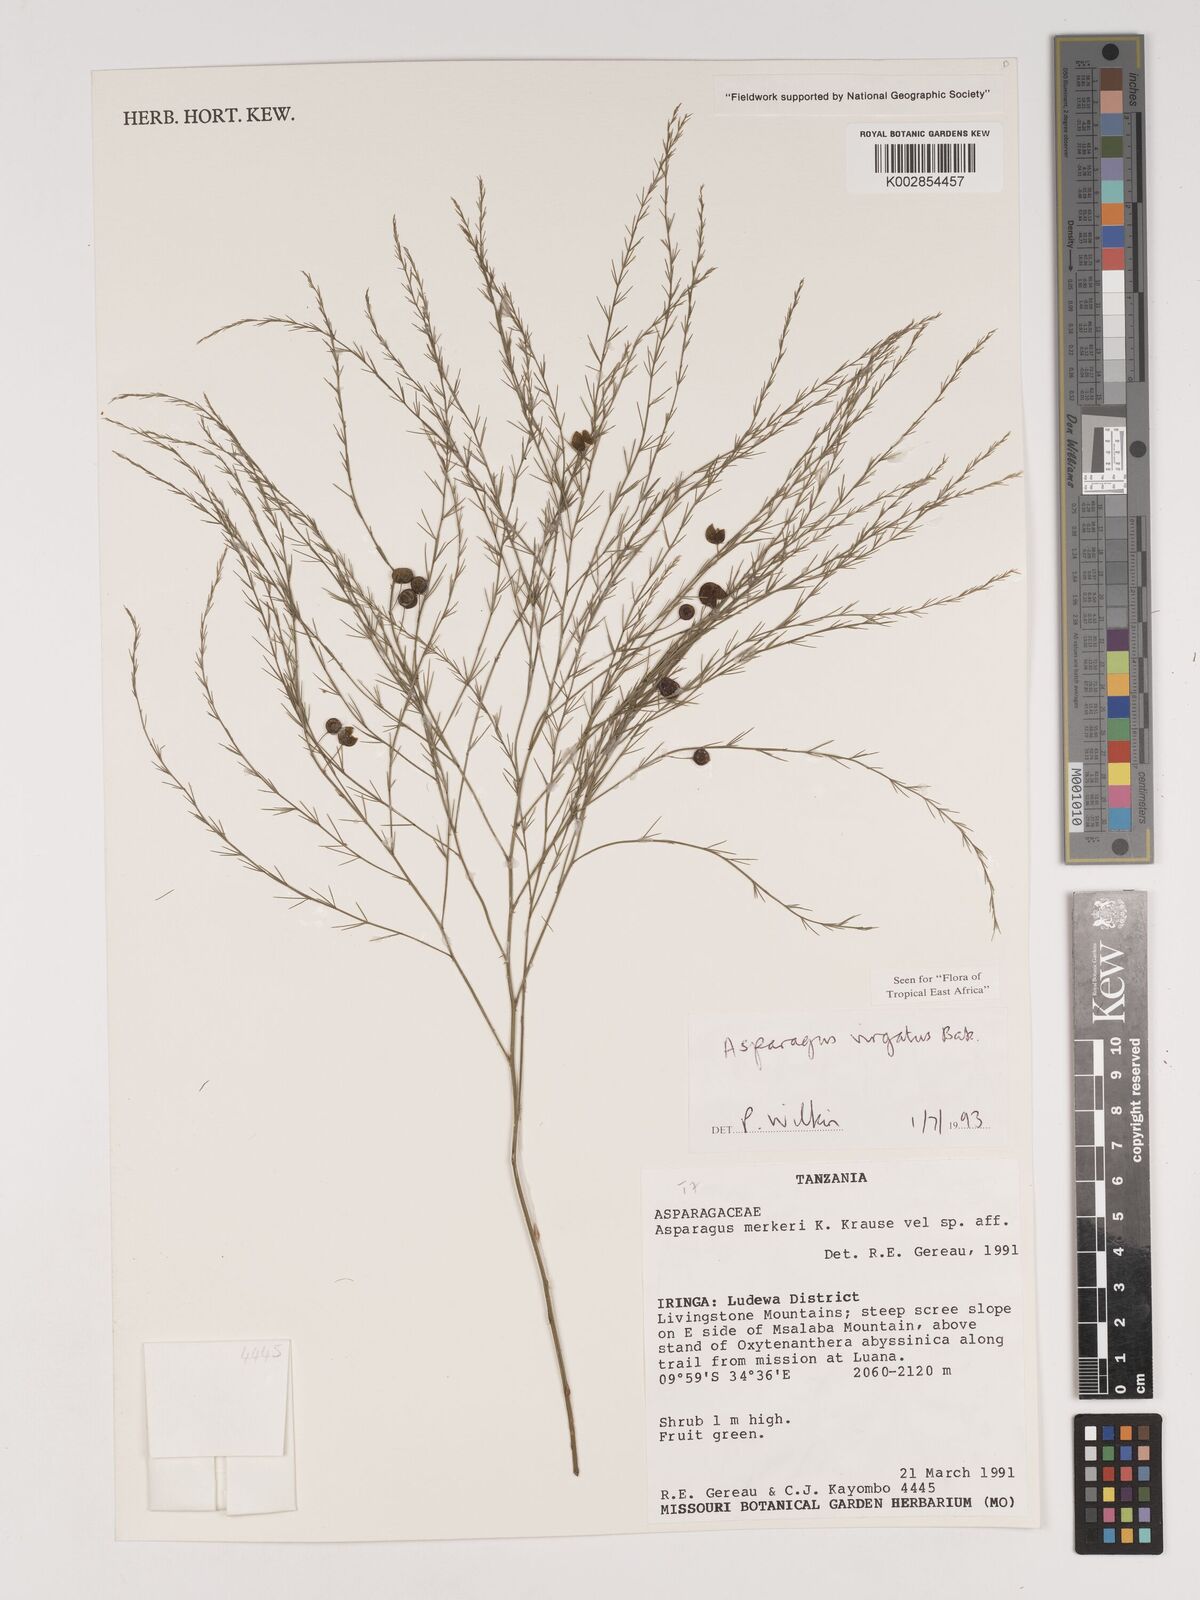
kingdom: Plantae
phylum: Tracheophyta
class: Liliopsida
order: Asparagales
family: Asparagaceae
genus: Asparagus
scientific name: Asparagus virgatus
